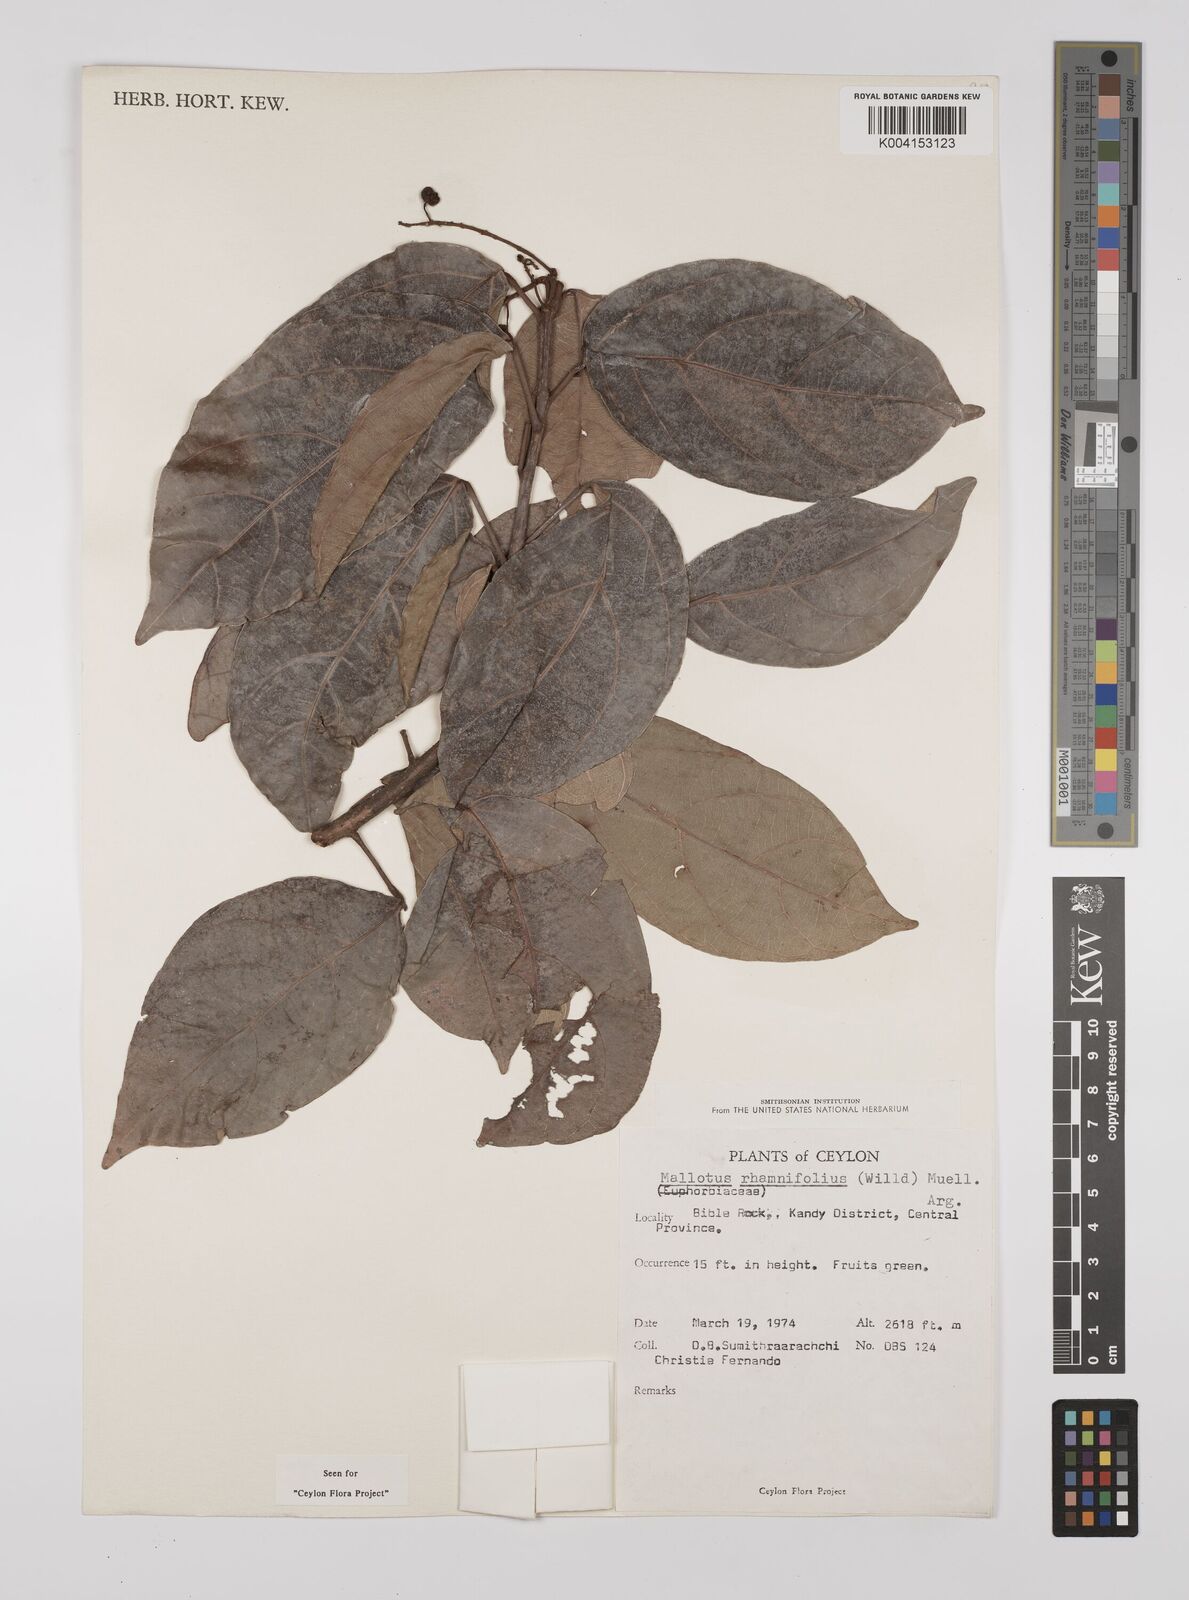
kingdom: Plantae
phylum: Tracheophyta
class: Magnoliopsida
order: Malpighiales
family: Euphorbiaceae
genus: Mallotus
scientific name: Mallotus rhamnifolius
